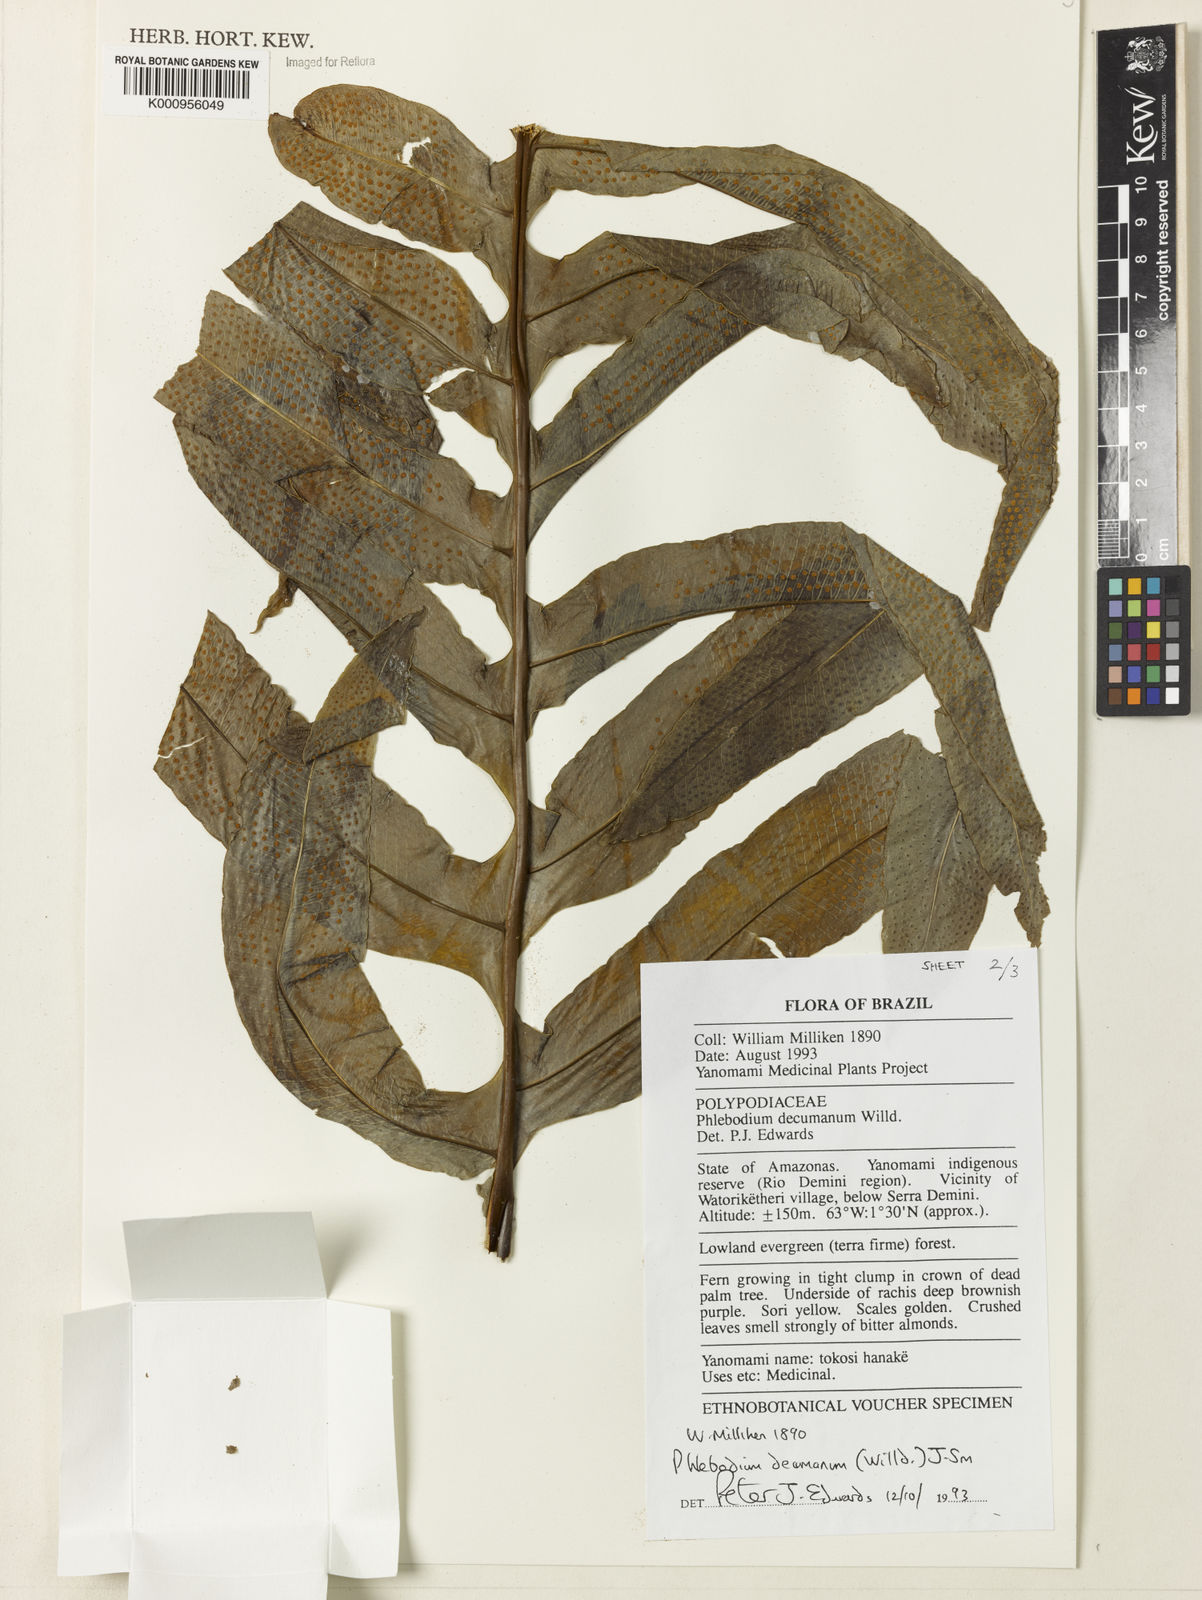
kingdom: Plantae
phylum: Tracheophyta
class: Polypodiopsida
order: Polypodiales
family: Polypodiaceae
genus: Phlebodium
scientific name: Phlebodium decumanum
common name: Golden polypod
